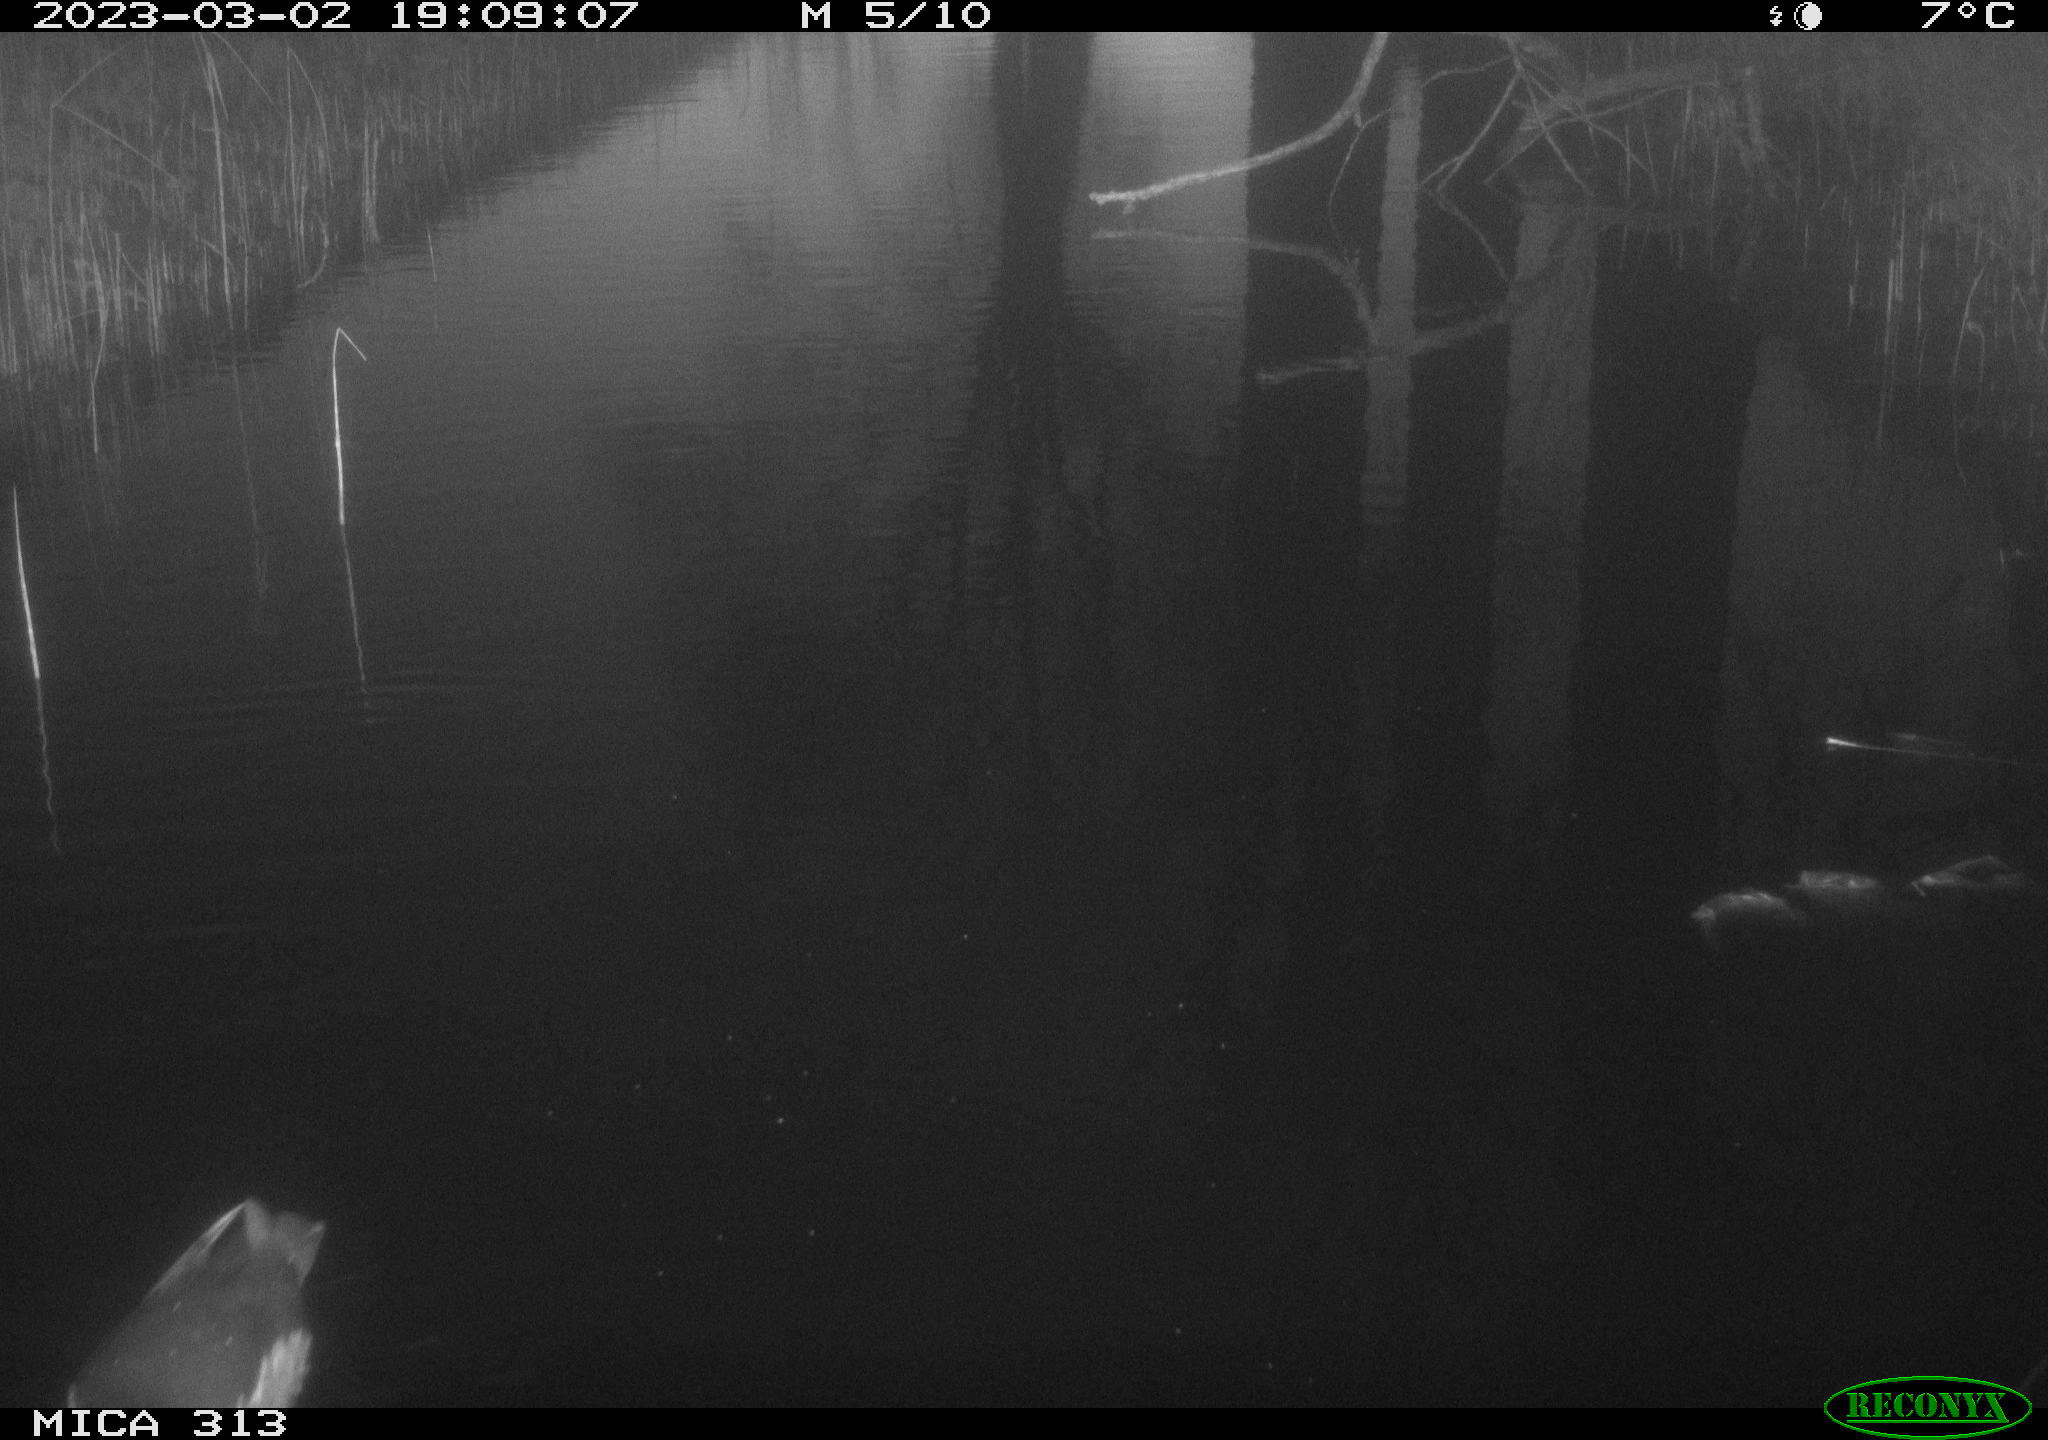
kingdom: Animalia
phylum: Chordata
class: Aves
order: Gruiformes
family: Rallidae
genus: Gallinula
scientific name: Gallinula chloropus
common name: Common moorhen
